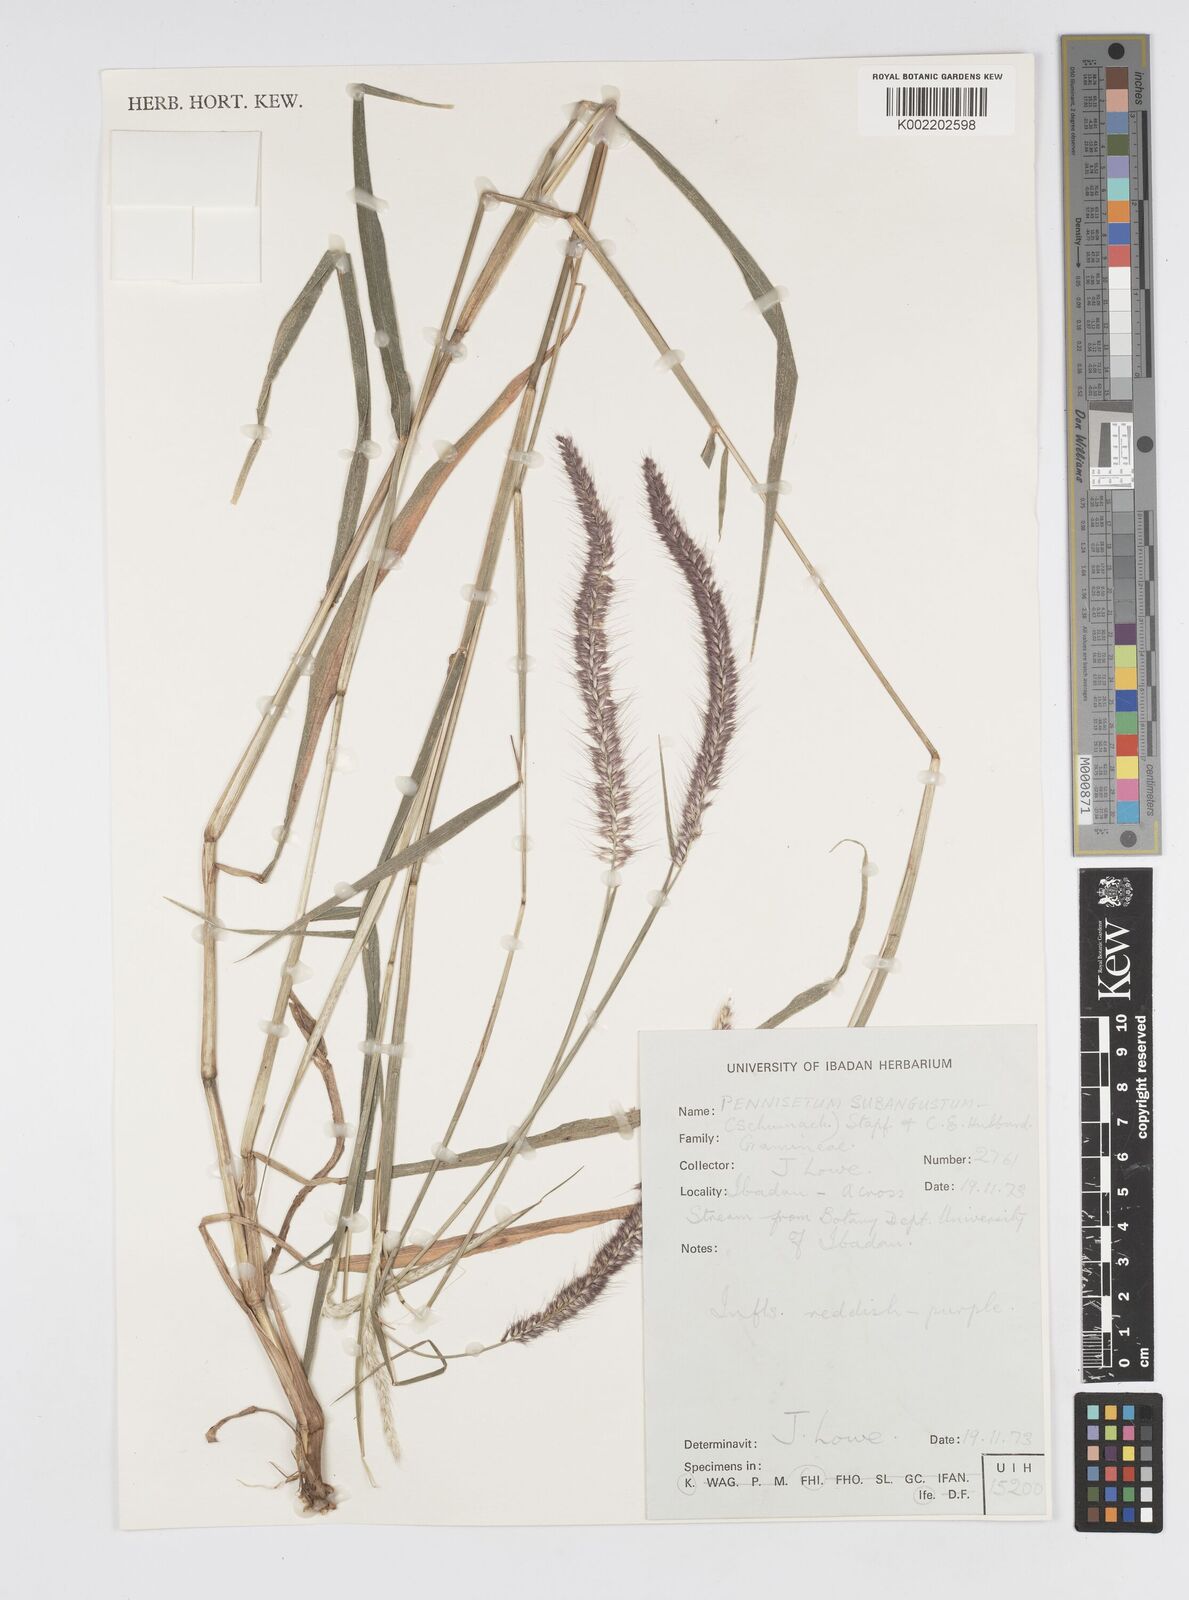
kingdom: Plantae
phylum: Tracheophyta
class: Liliopsida
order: Poales
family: Poaceae
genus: Setaria
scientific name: Setaria parviflora
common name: Knotroot bristle-grass
